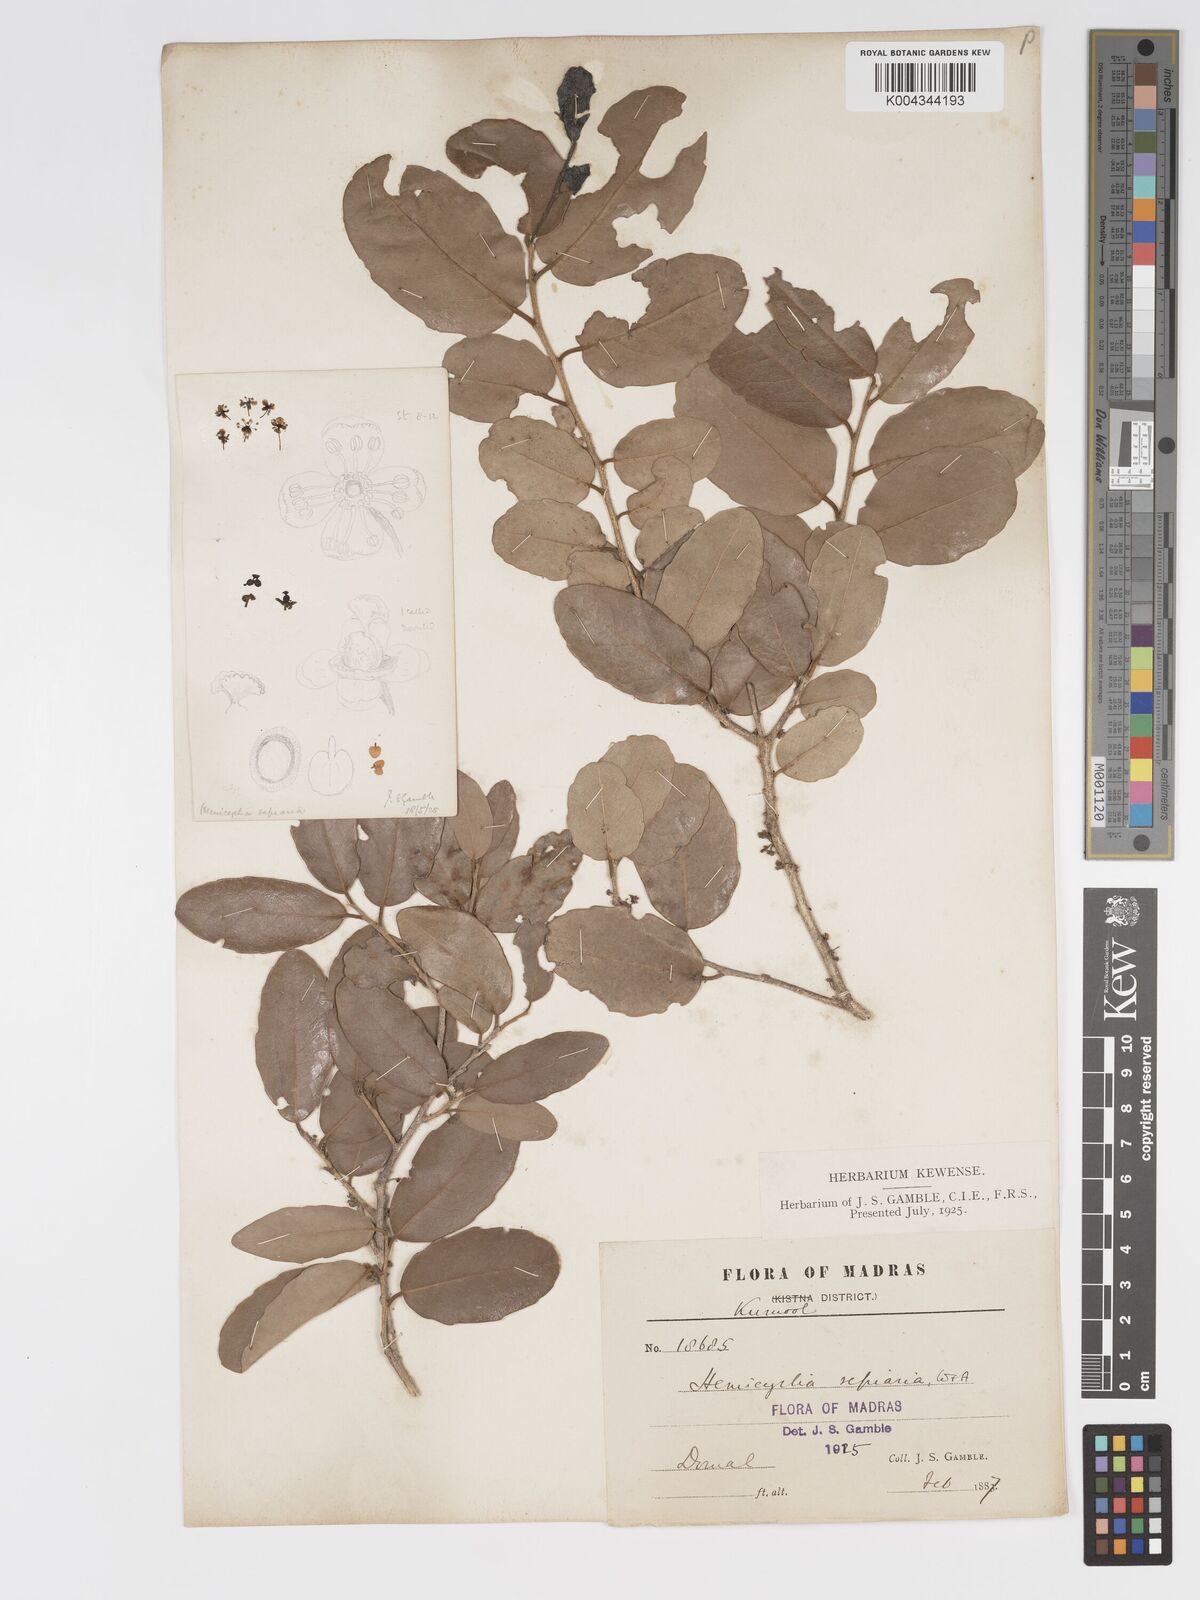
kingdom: Plantae
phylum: Tracheophyta
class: Magnoliopsida
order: Malpighiales
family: Putranjivaceae
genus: Drypetes
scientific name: Drypetes sepiaria
